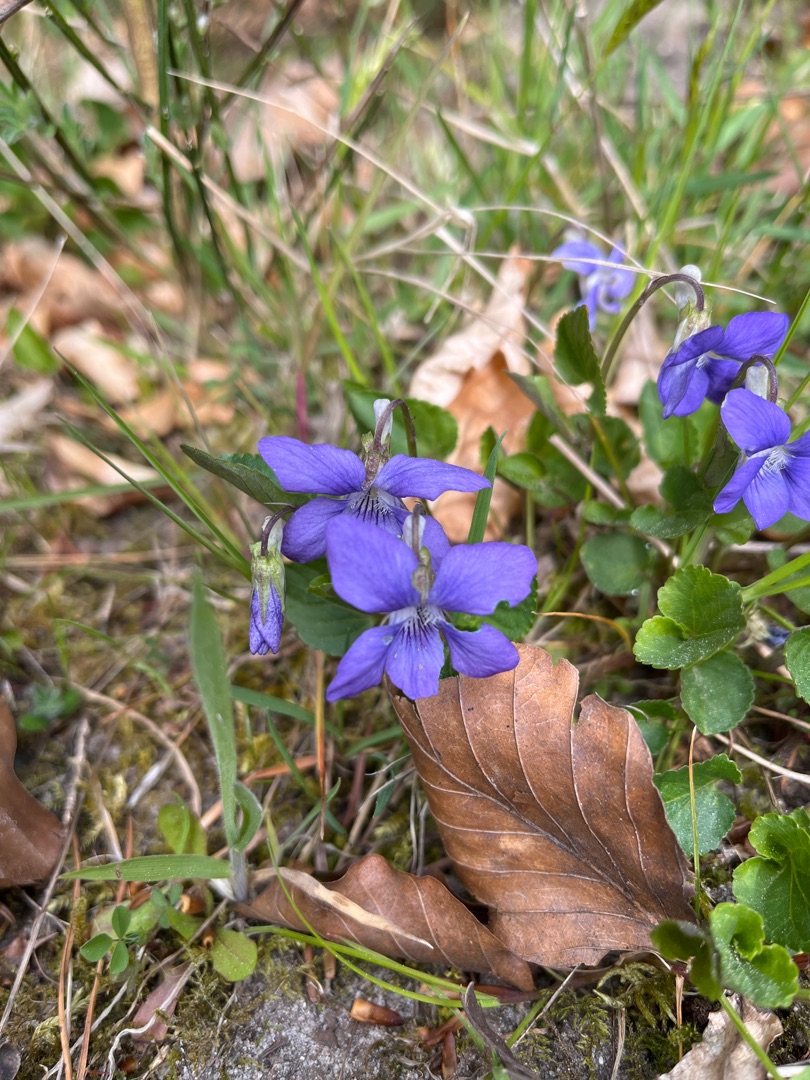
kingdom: Plantae
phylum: Tracheophyta
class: Magnoliopsida
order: Malpighiales
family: Violaceae
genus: Viola
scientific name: Viola riviniana
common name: Krat-viol
